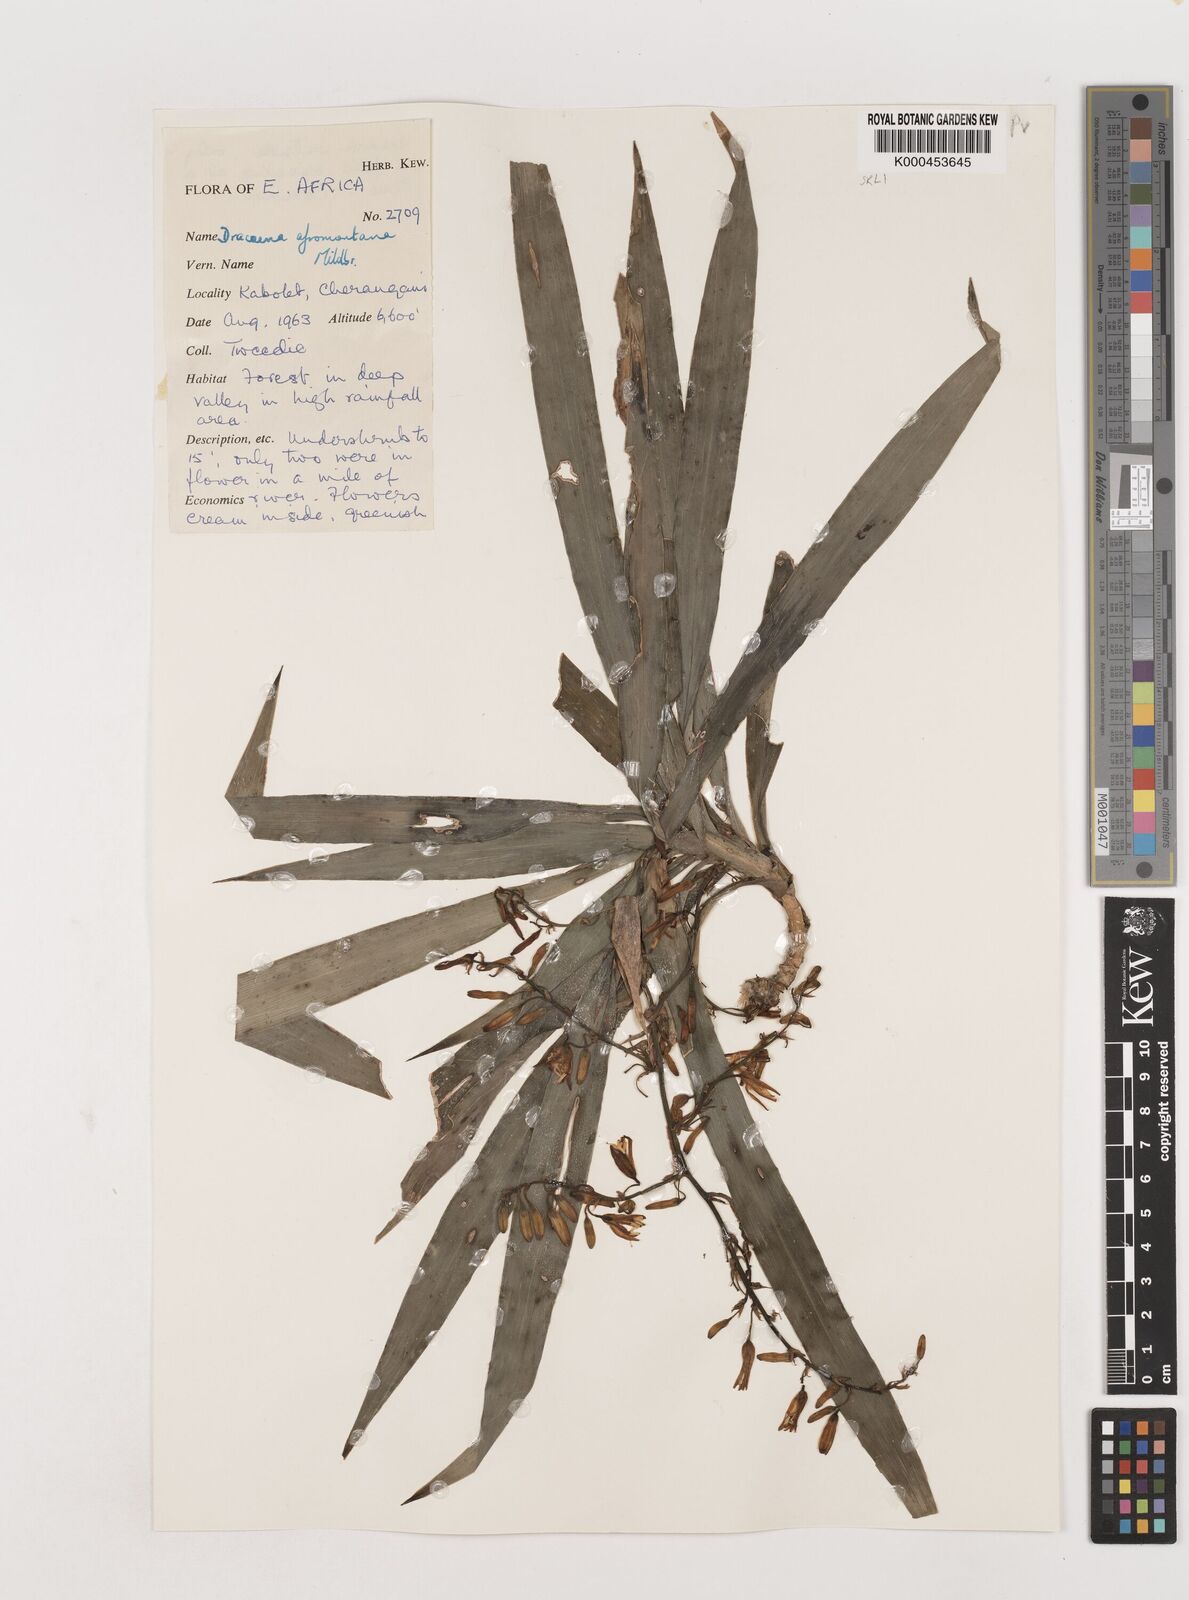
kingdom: Plantae
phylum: Tracheophyta
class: Liliopsida
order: Asparagales
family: Asparagaceae
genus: Dracaena
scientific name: Dracaena afromontana
